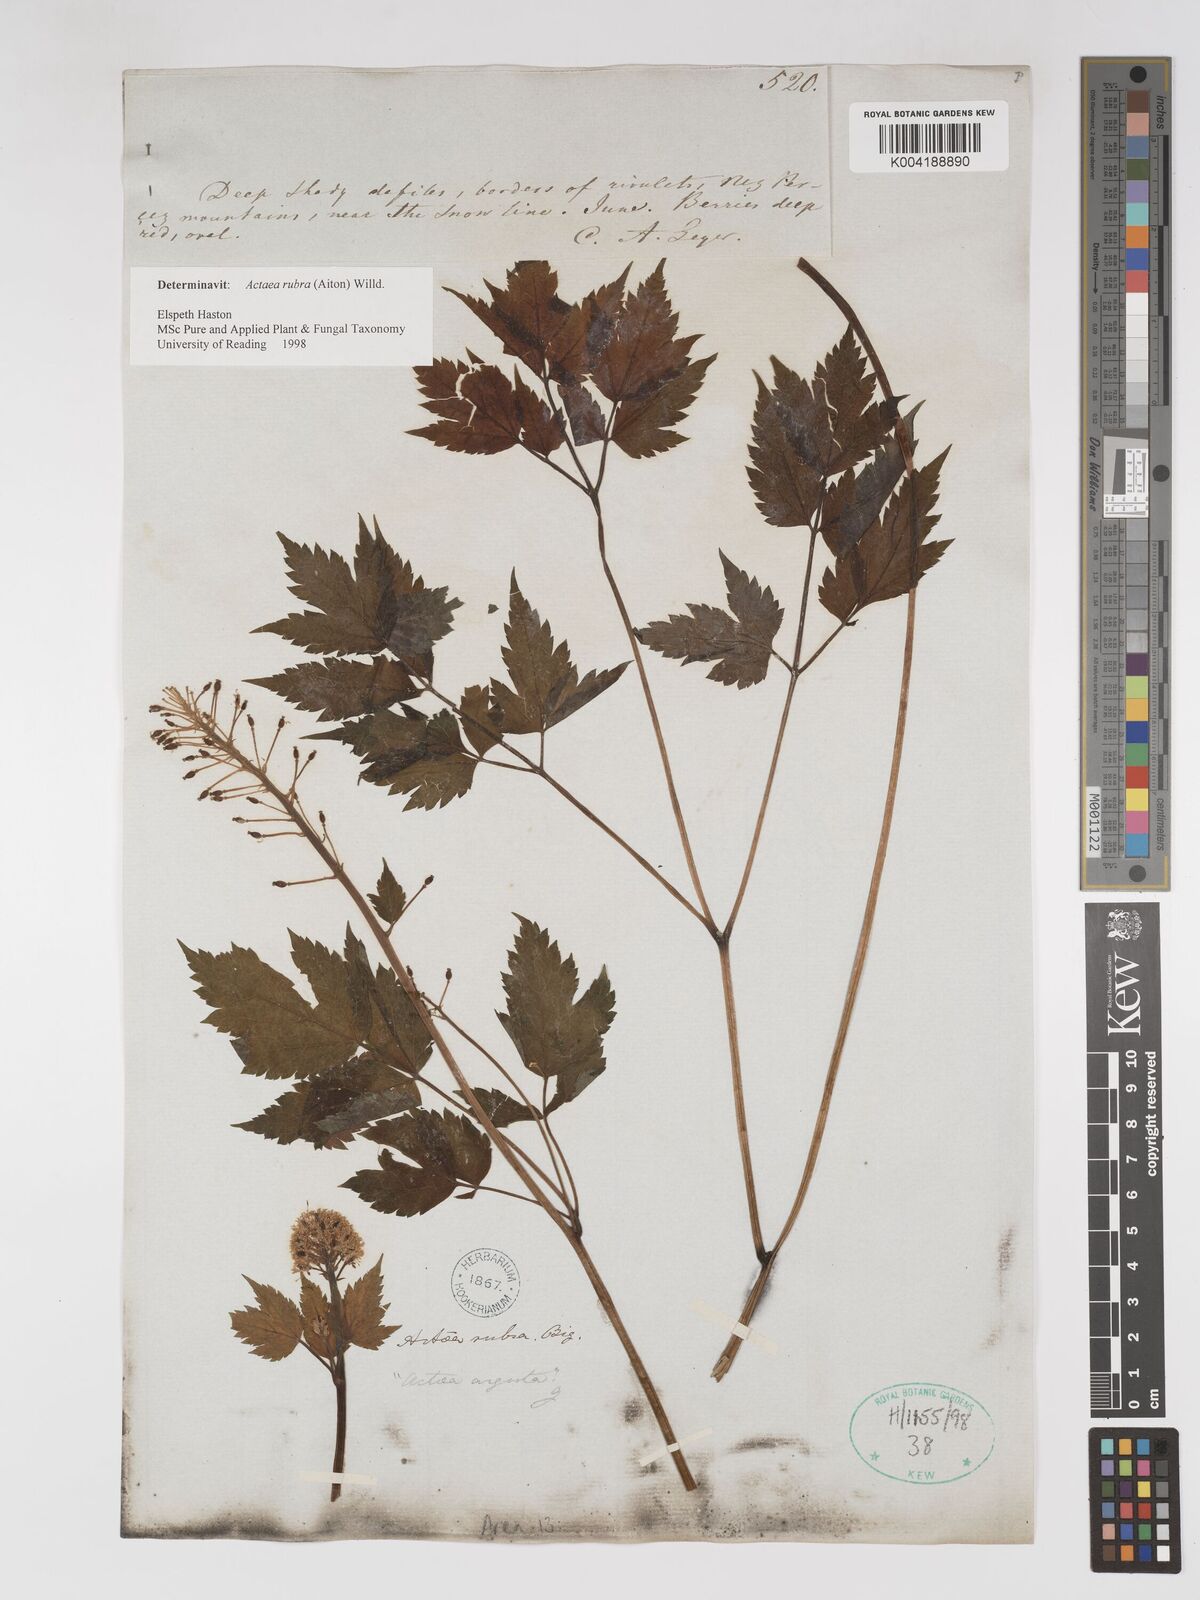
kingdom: Plantae
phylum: Tracheophyta
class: Magnoliopsida
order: Ranunculales
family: Ranunculaceae
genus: Actaea
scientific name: Actaea spicata
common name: Baneberry
